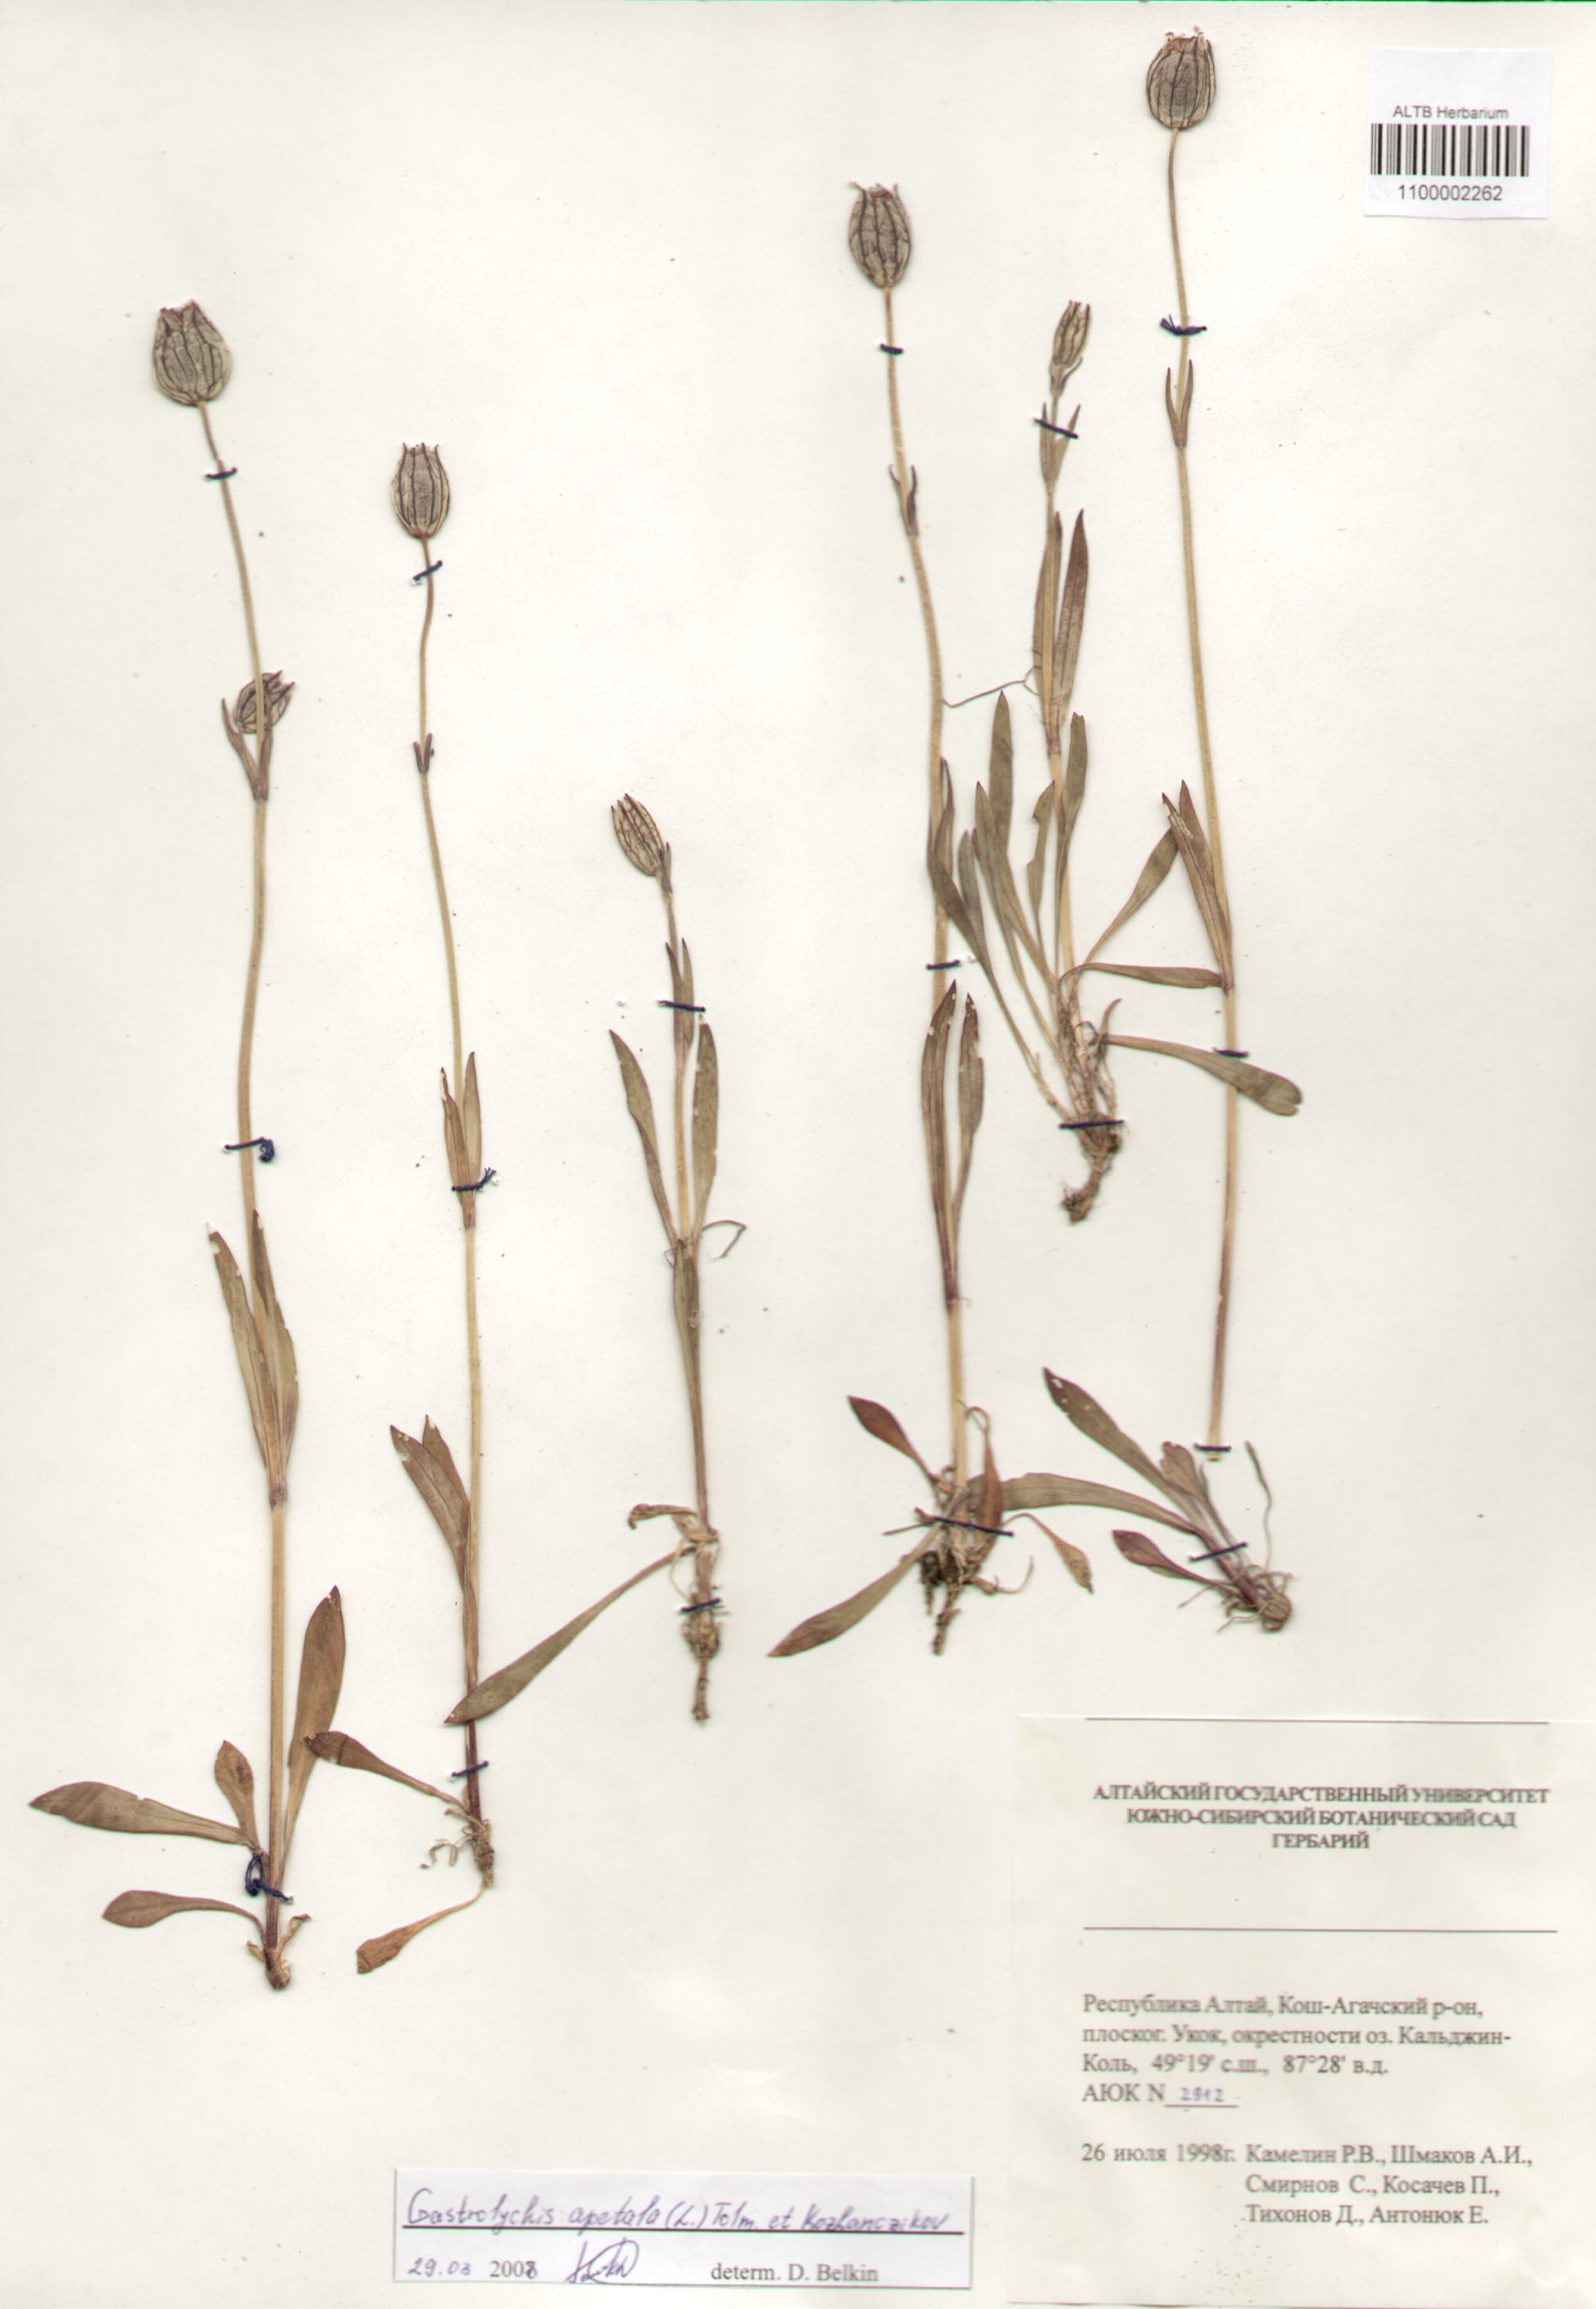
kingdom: Plantae
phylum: Tracheophyta
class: Magnoliopsida
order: Caryophyllales
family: Caryophyllaceae
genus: Silene
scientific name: Silene wahlbergella
